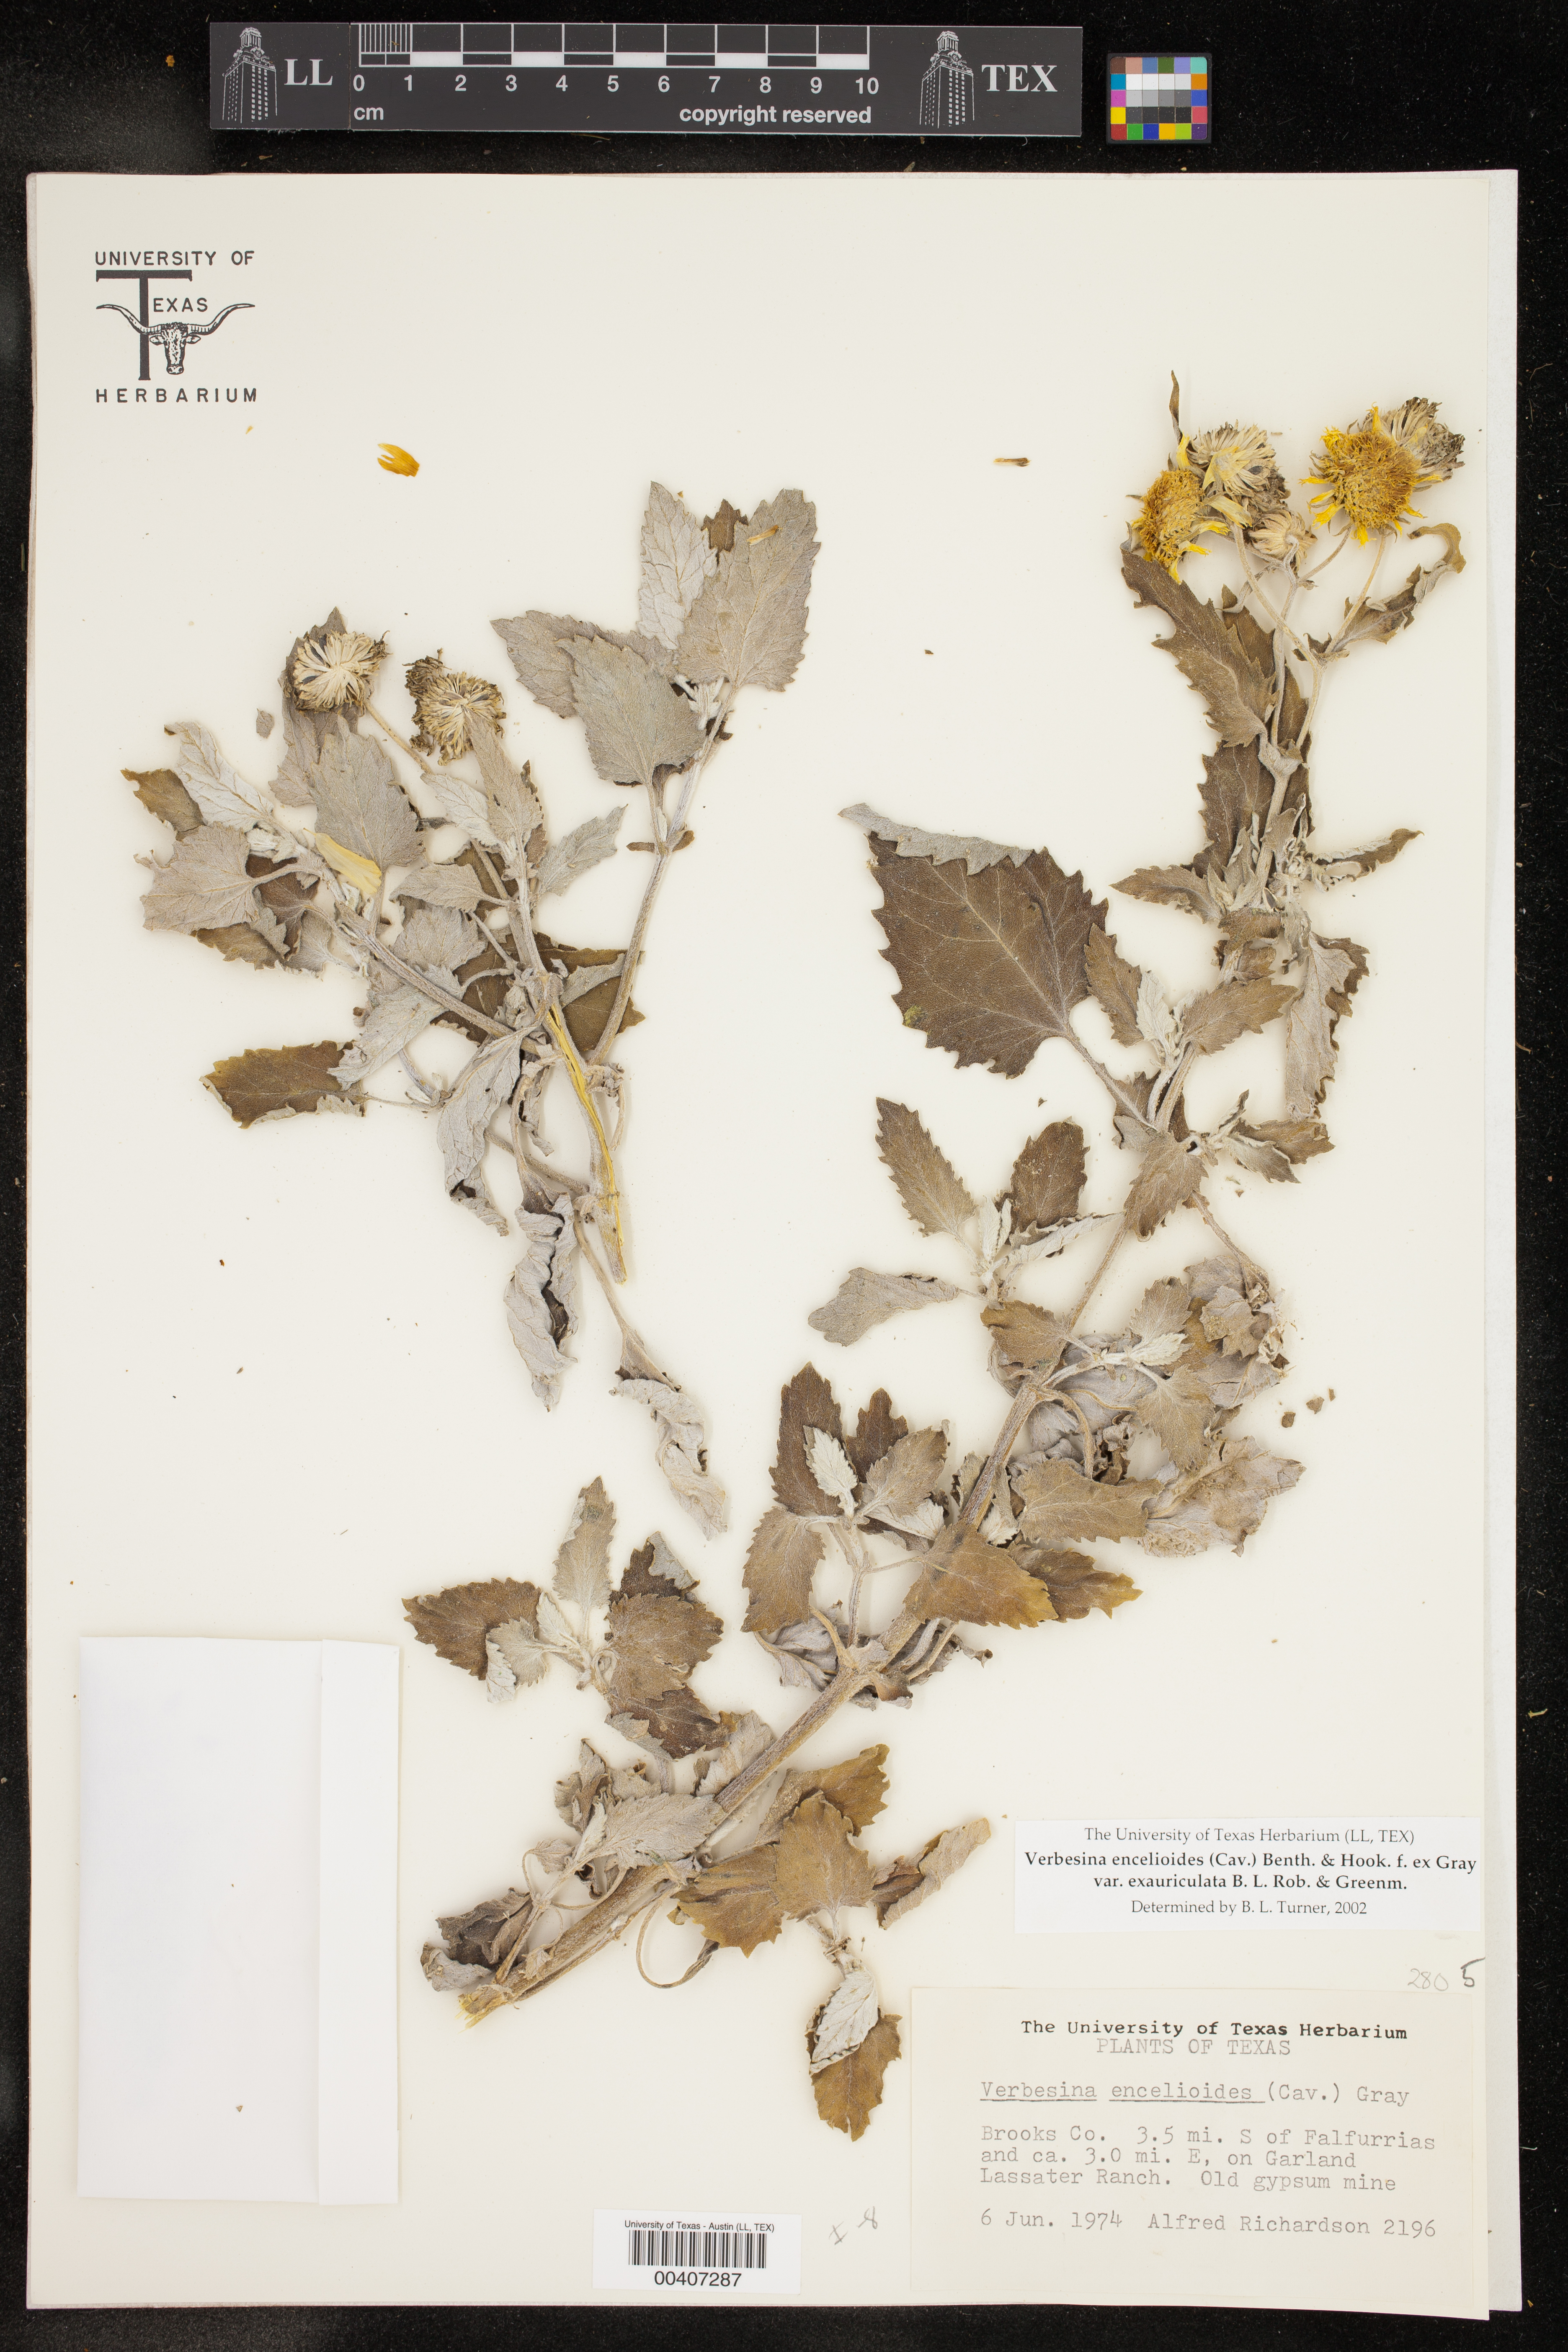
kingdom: Plantae
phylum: Tracheophyta
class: Magnoliopsida
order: Asterales
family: Asteraceae
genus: Verbesina
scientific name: Verbesina encelioides
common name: Golden crownbeard
